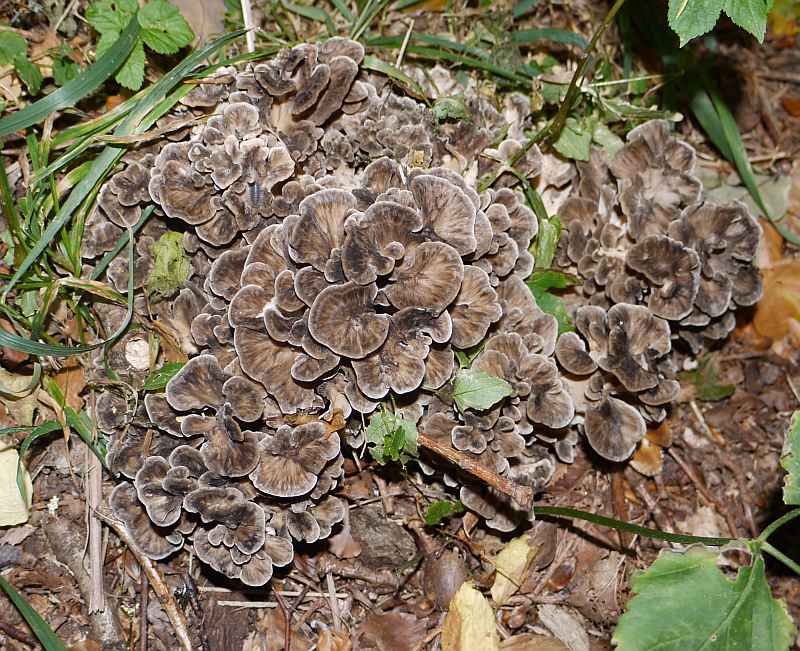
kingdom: Fungi
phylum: Basidiomycota
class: Agaricomycetes
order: Polyporales
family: Grifolaceae
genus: Grifola
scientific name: Grifola frondosa
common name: tueporesvamp
